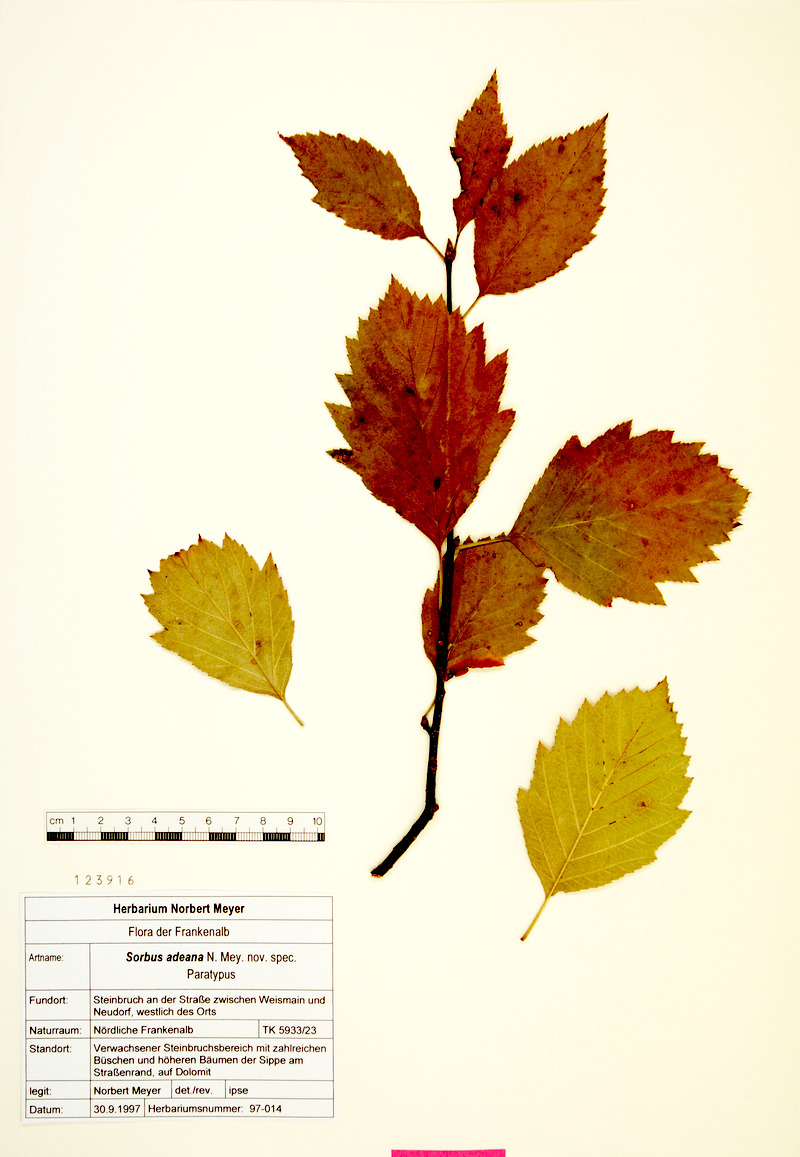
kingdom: Plantae
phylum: Tracheophyta
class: Magnoliopsida
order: Rosales
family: Rosaceae
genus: Karpatiosorbus
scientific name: Karpatiosorbus adeana
